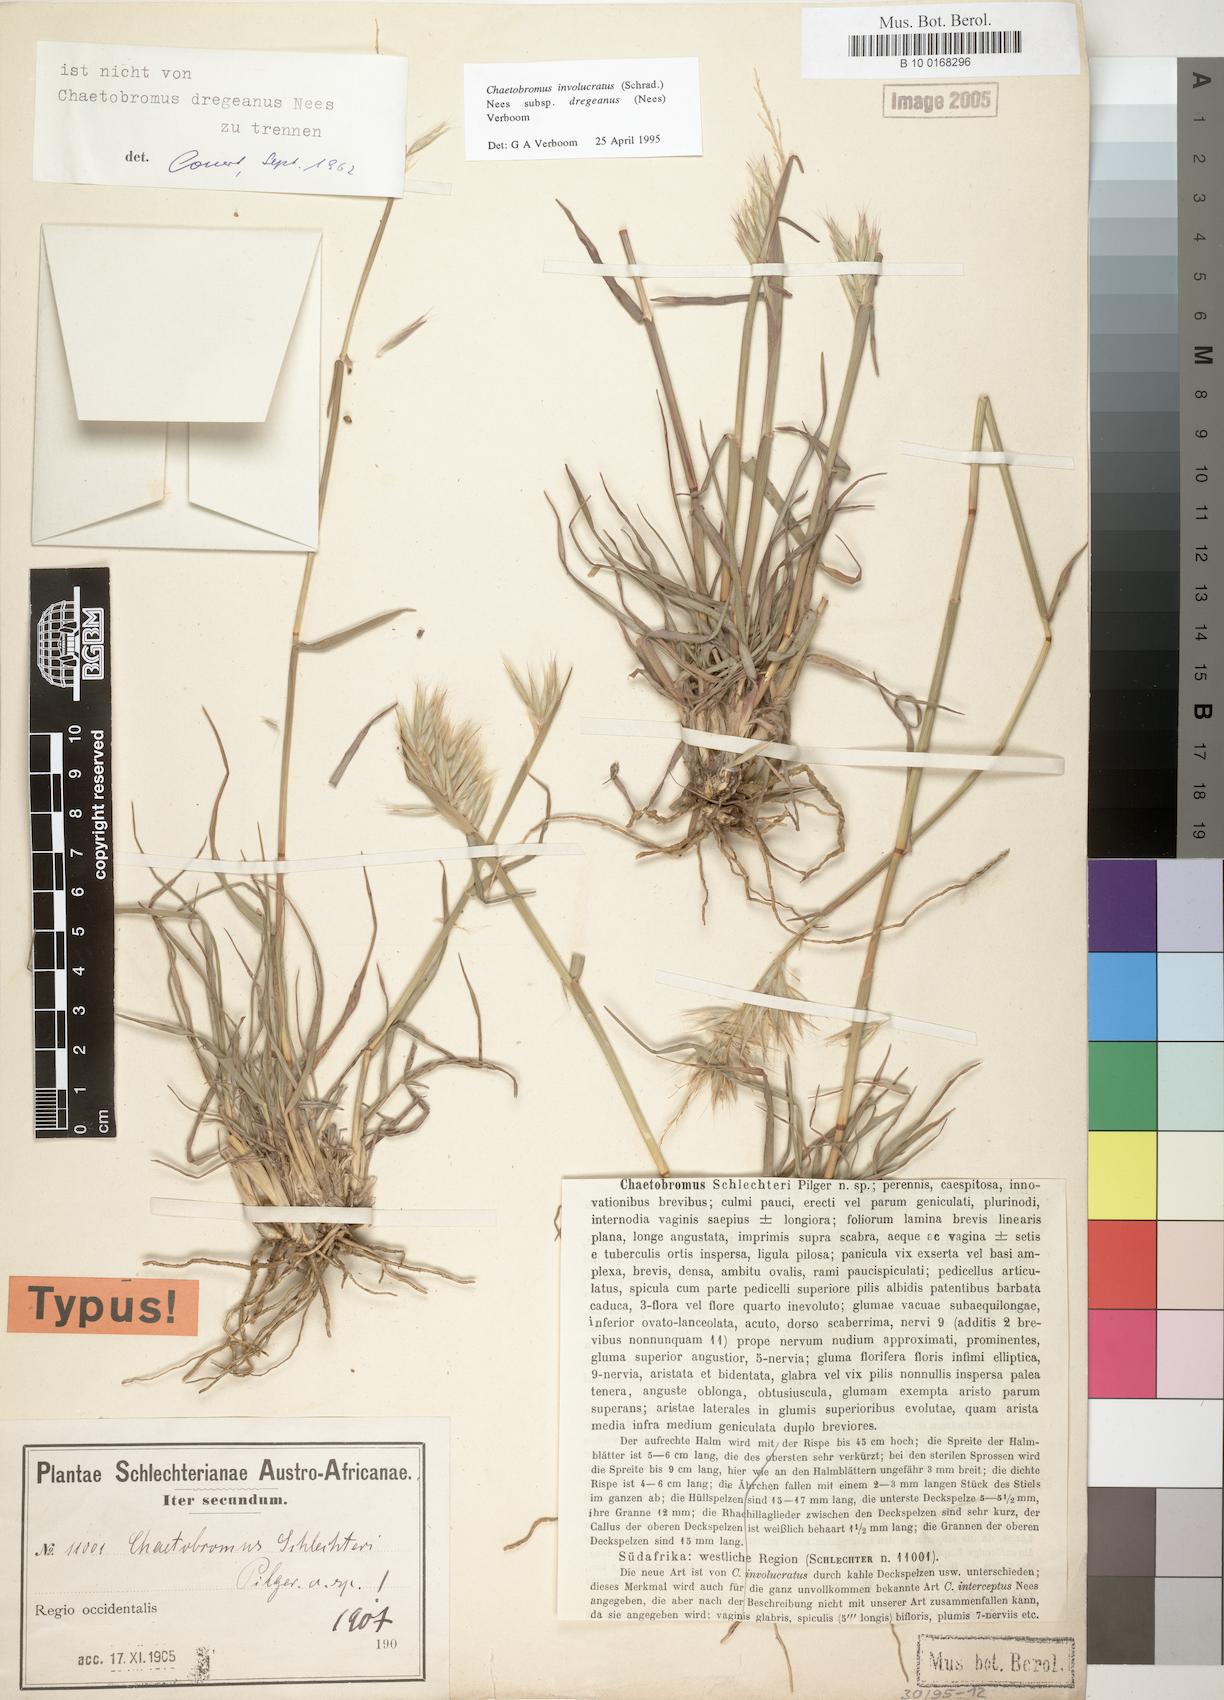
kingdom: Plantae
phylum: Tracheophyta
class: Liliopsida
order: Poales
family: Poaceae
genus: Chaetobromus
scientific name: Chaetobromus involucratus
